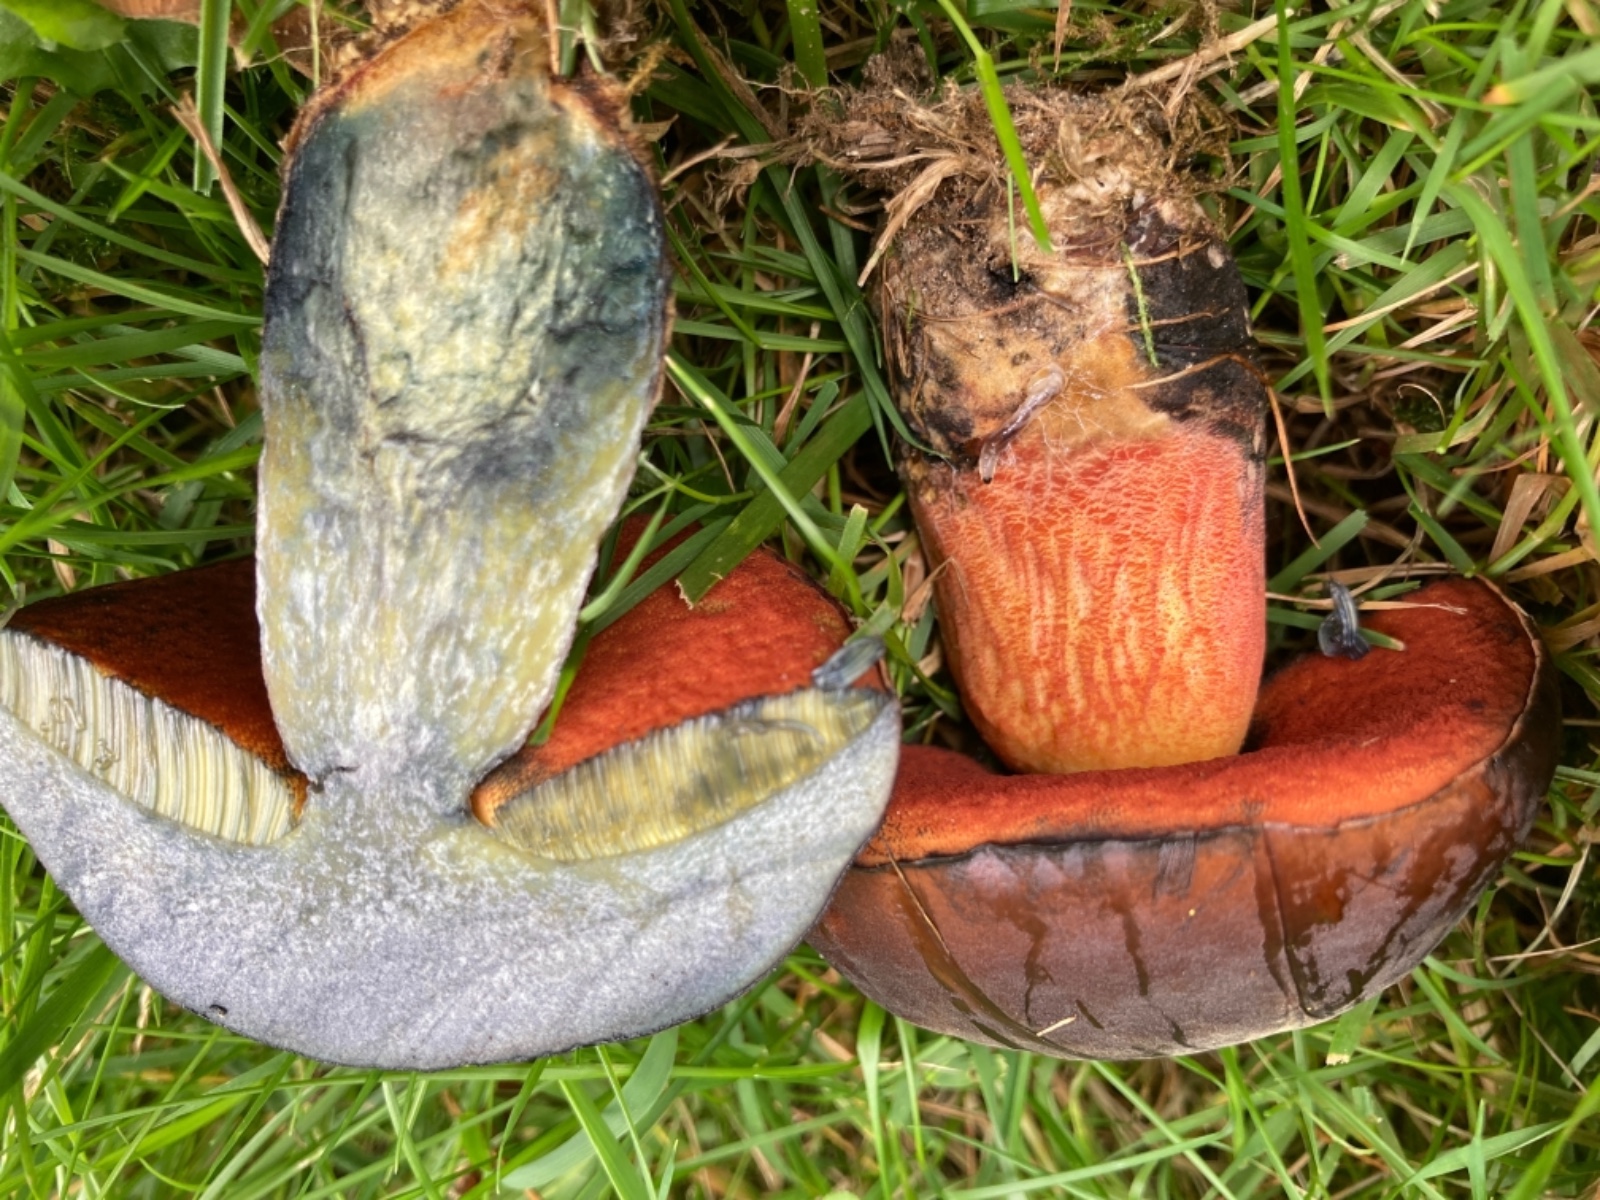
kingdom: Fungi
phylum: Basidiomycota
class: Agaricomycetes
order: Boletales
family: Boletaceae
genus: Neoboletus
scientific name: Neoboletus xanthopus
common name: finprikket indigorørhat
